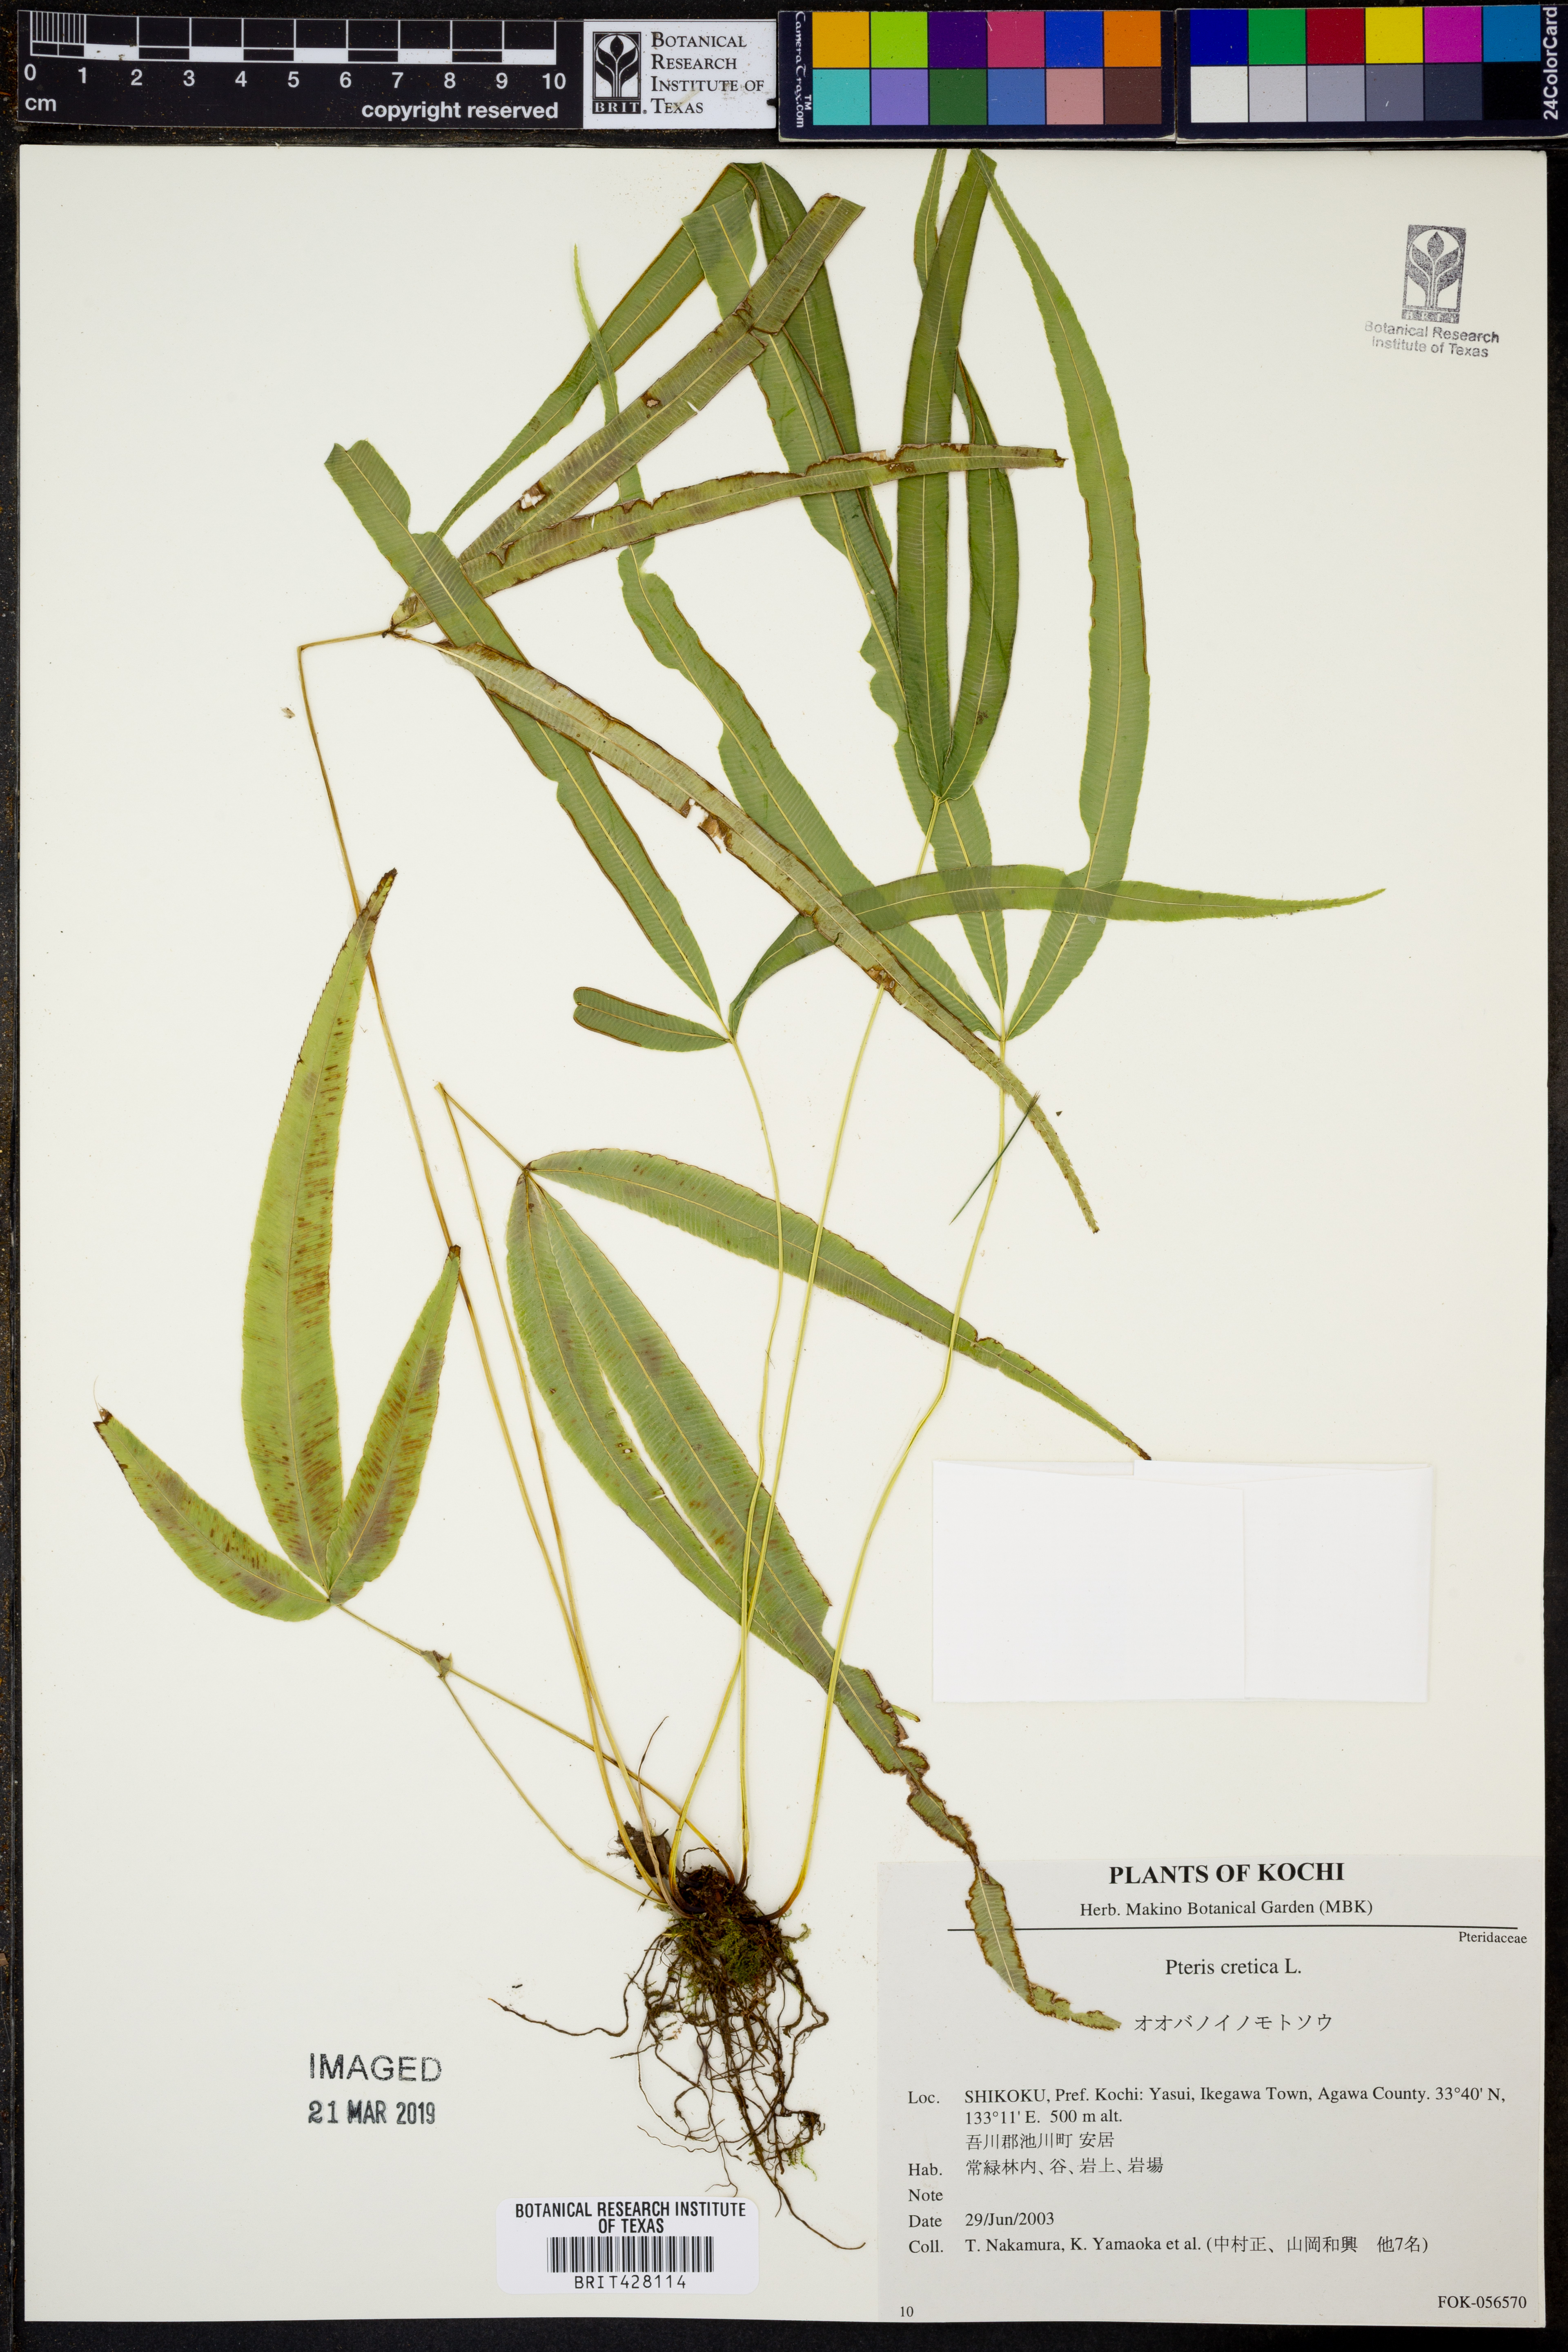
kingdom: Plantae
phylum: Tracheophyta
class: Polypodiopsida
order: Polypodiales
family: Pteridaceae
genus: Pteris
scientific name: Pteris cretica
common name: Ribbon fern
